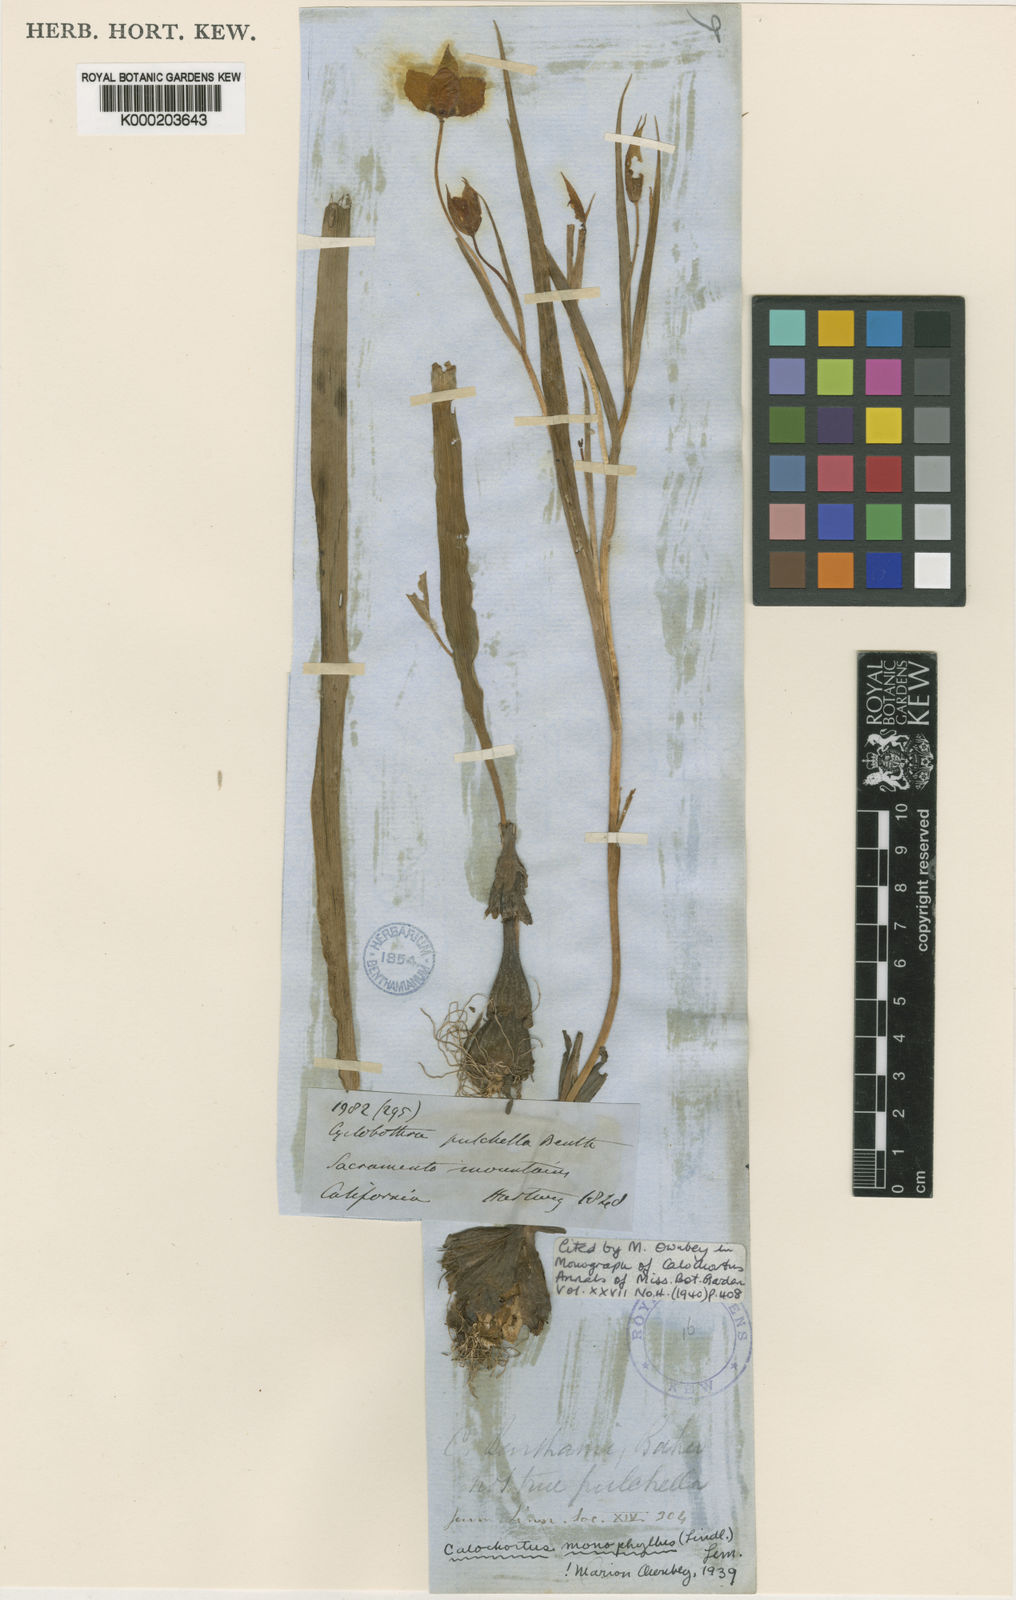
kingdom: Plantae
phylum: Tracheophyta
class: Liliopsida
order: Liliales
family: Liliaceae
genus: Calochortus
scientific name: Calochortus monophyllus
